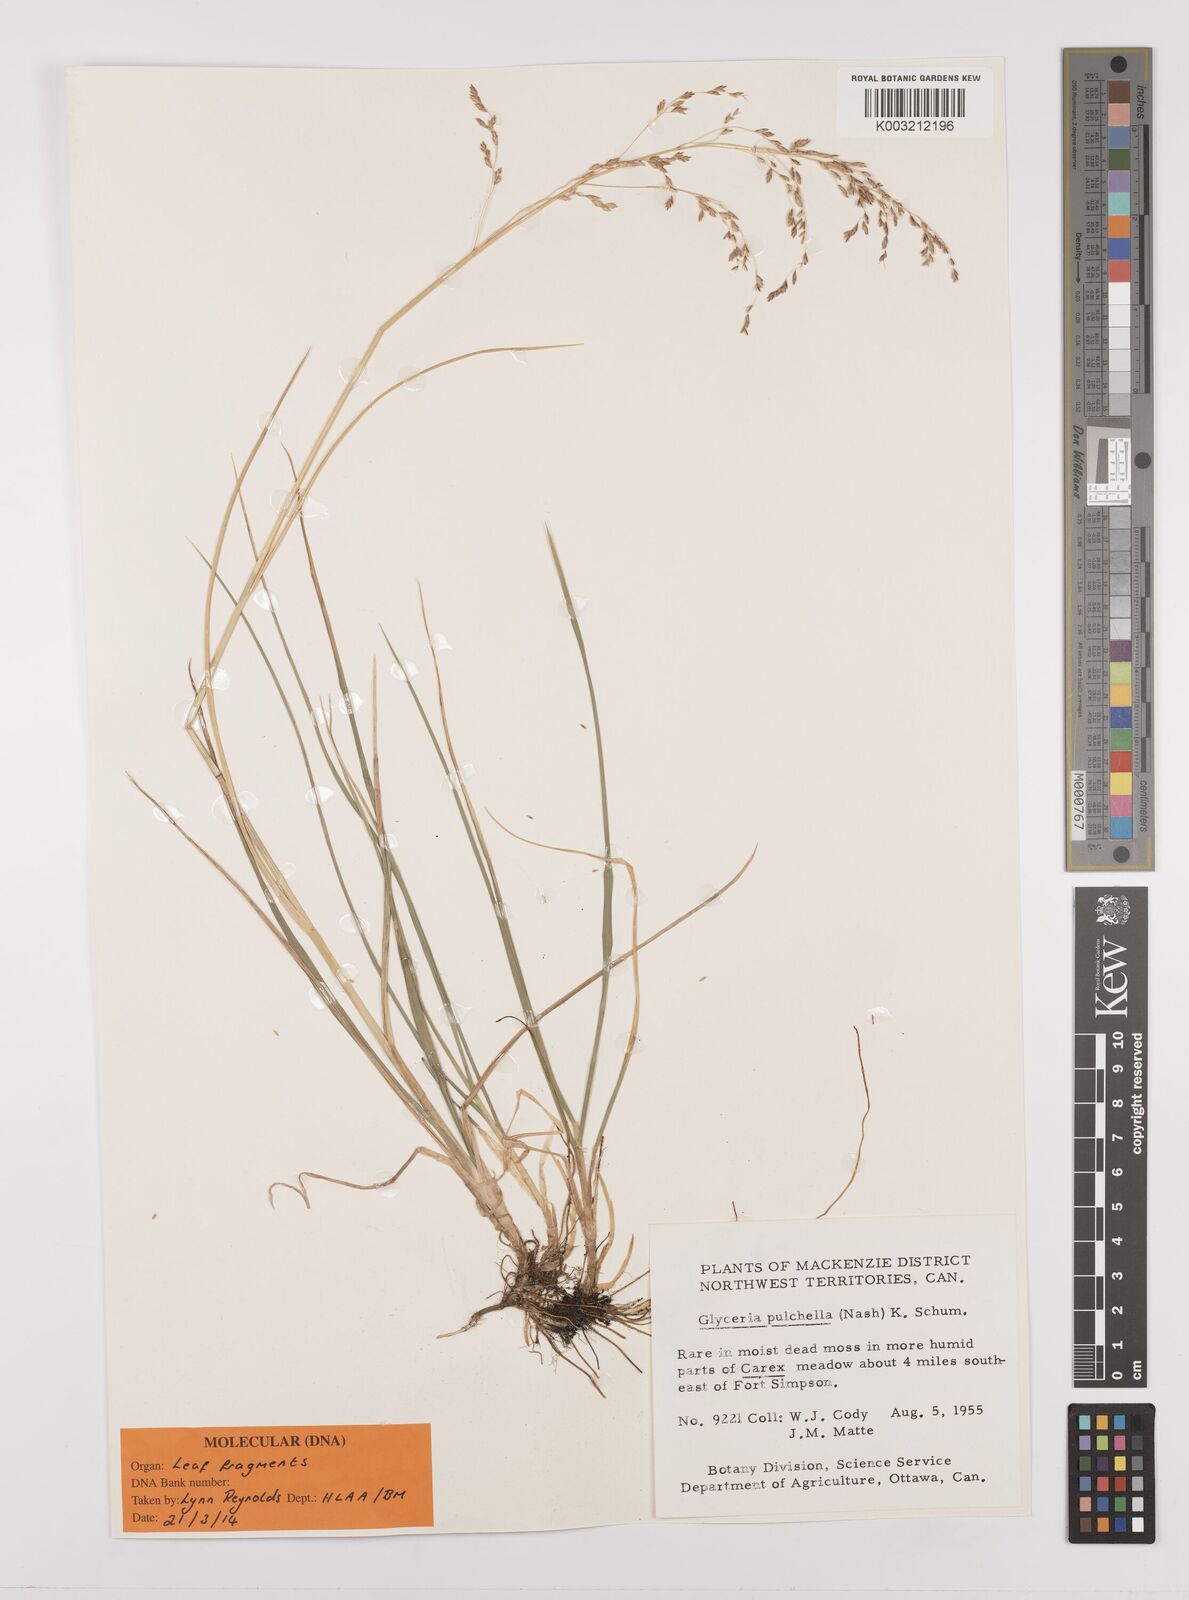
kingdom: Plantae
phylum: Tracheophyta
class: Liliopsida
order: Poales
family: Poaceae
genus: Glyceria
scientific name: Glyceria pulchella
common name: Mackenzie valley mannagrass
